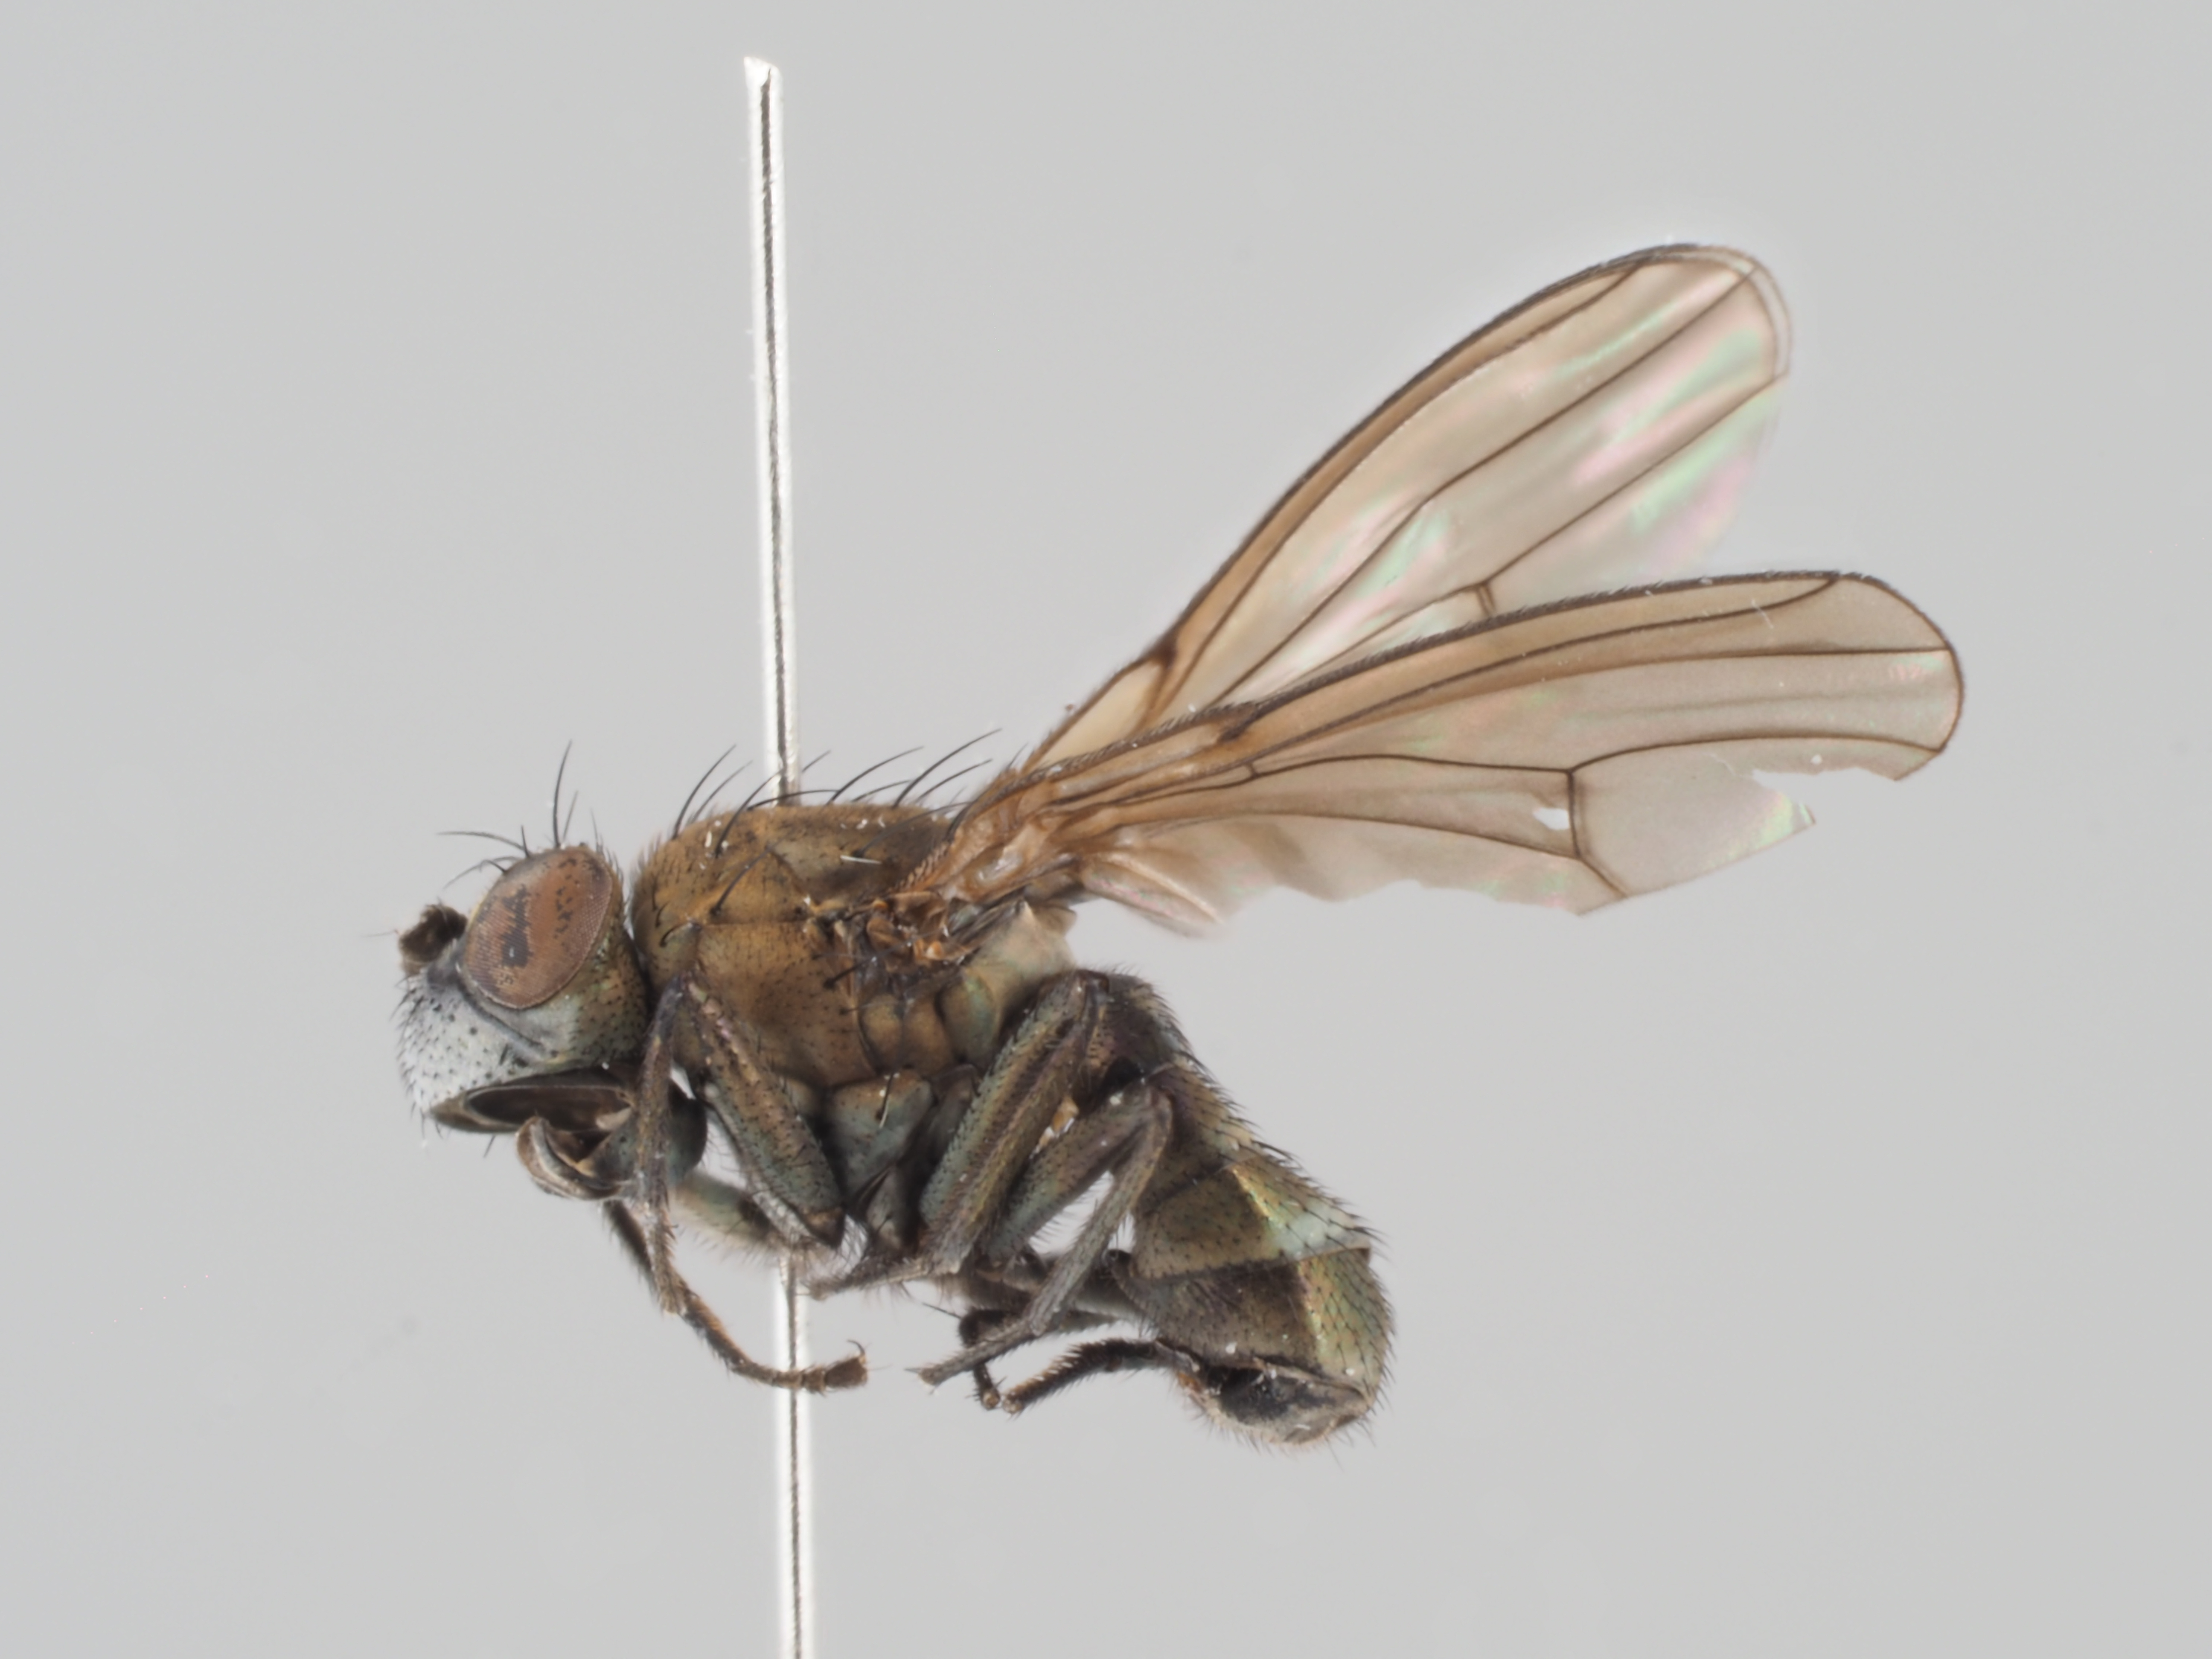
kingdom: Animalia
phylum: Arthropoda
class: Insecta
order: Diptera
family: Ephydridae
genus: Paracoenia
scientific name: Paracoenia fumosa
